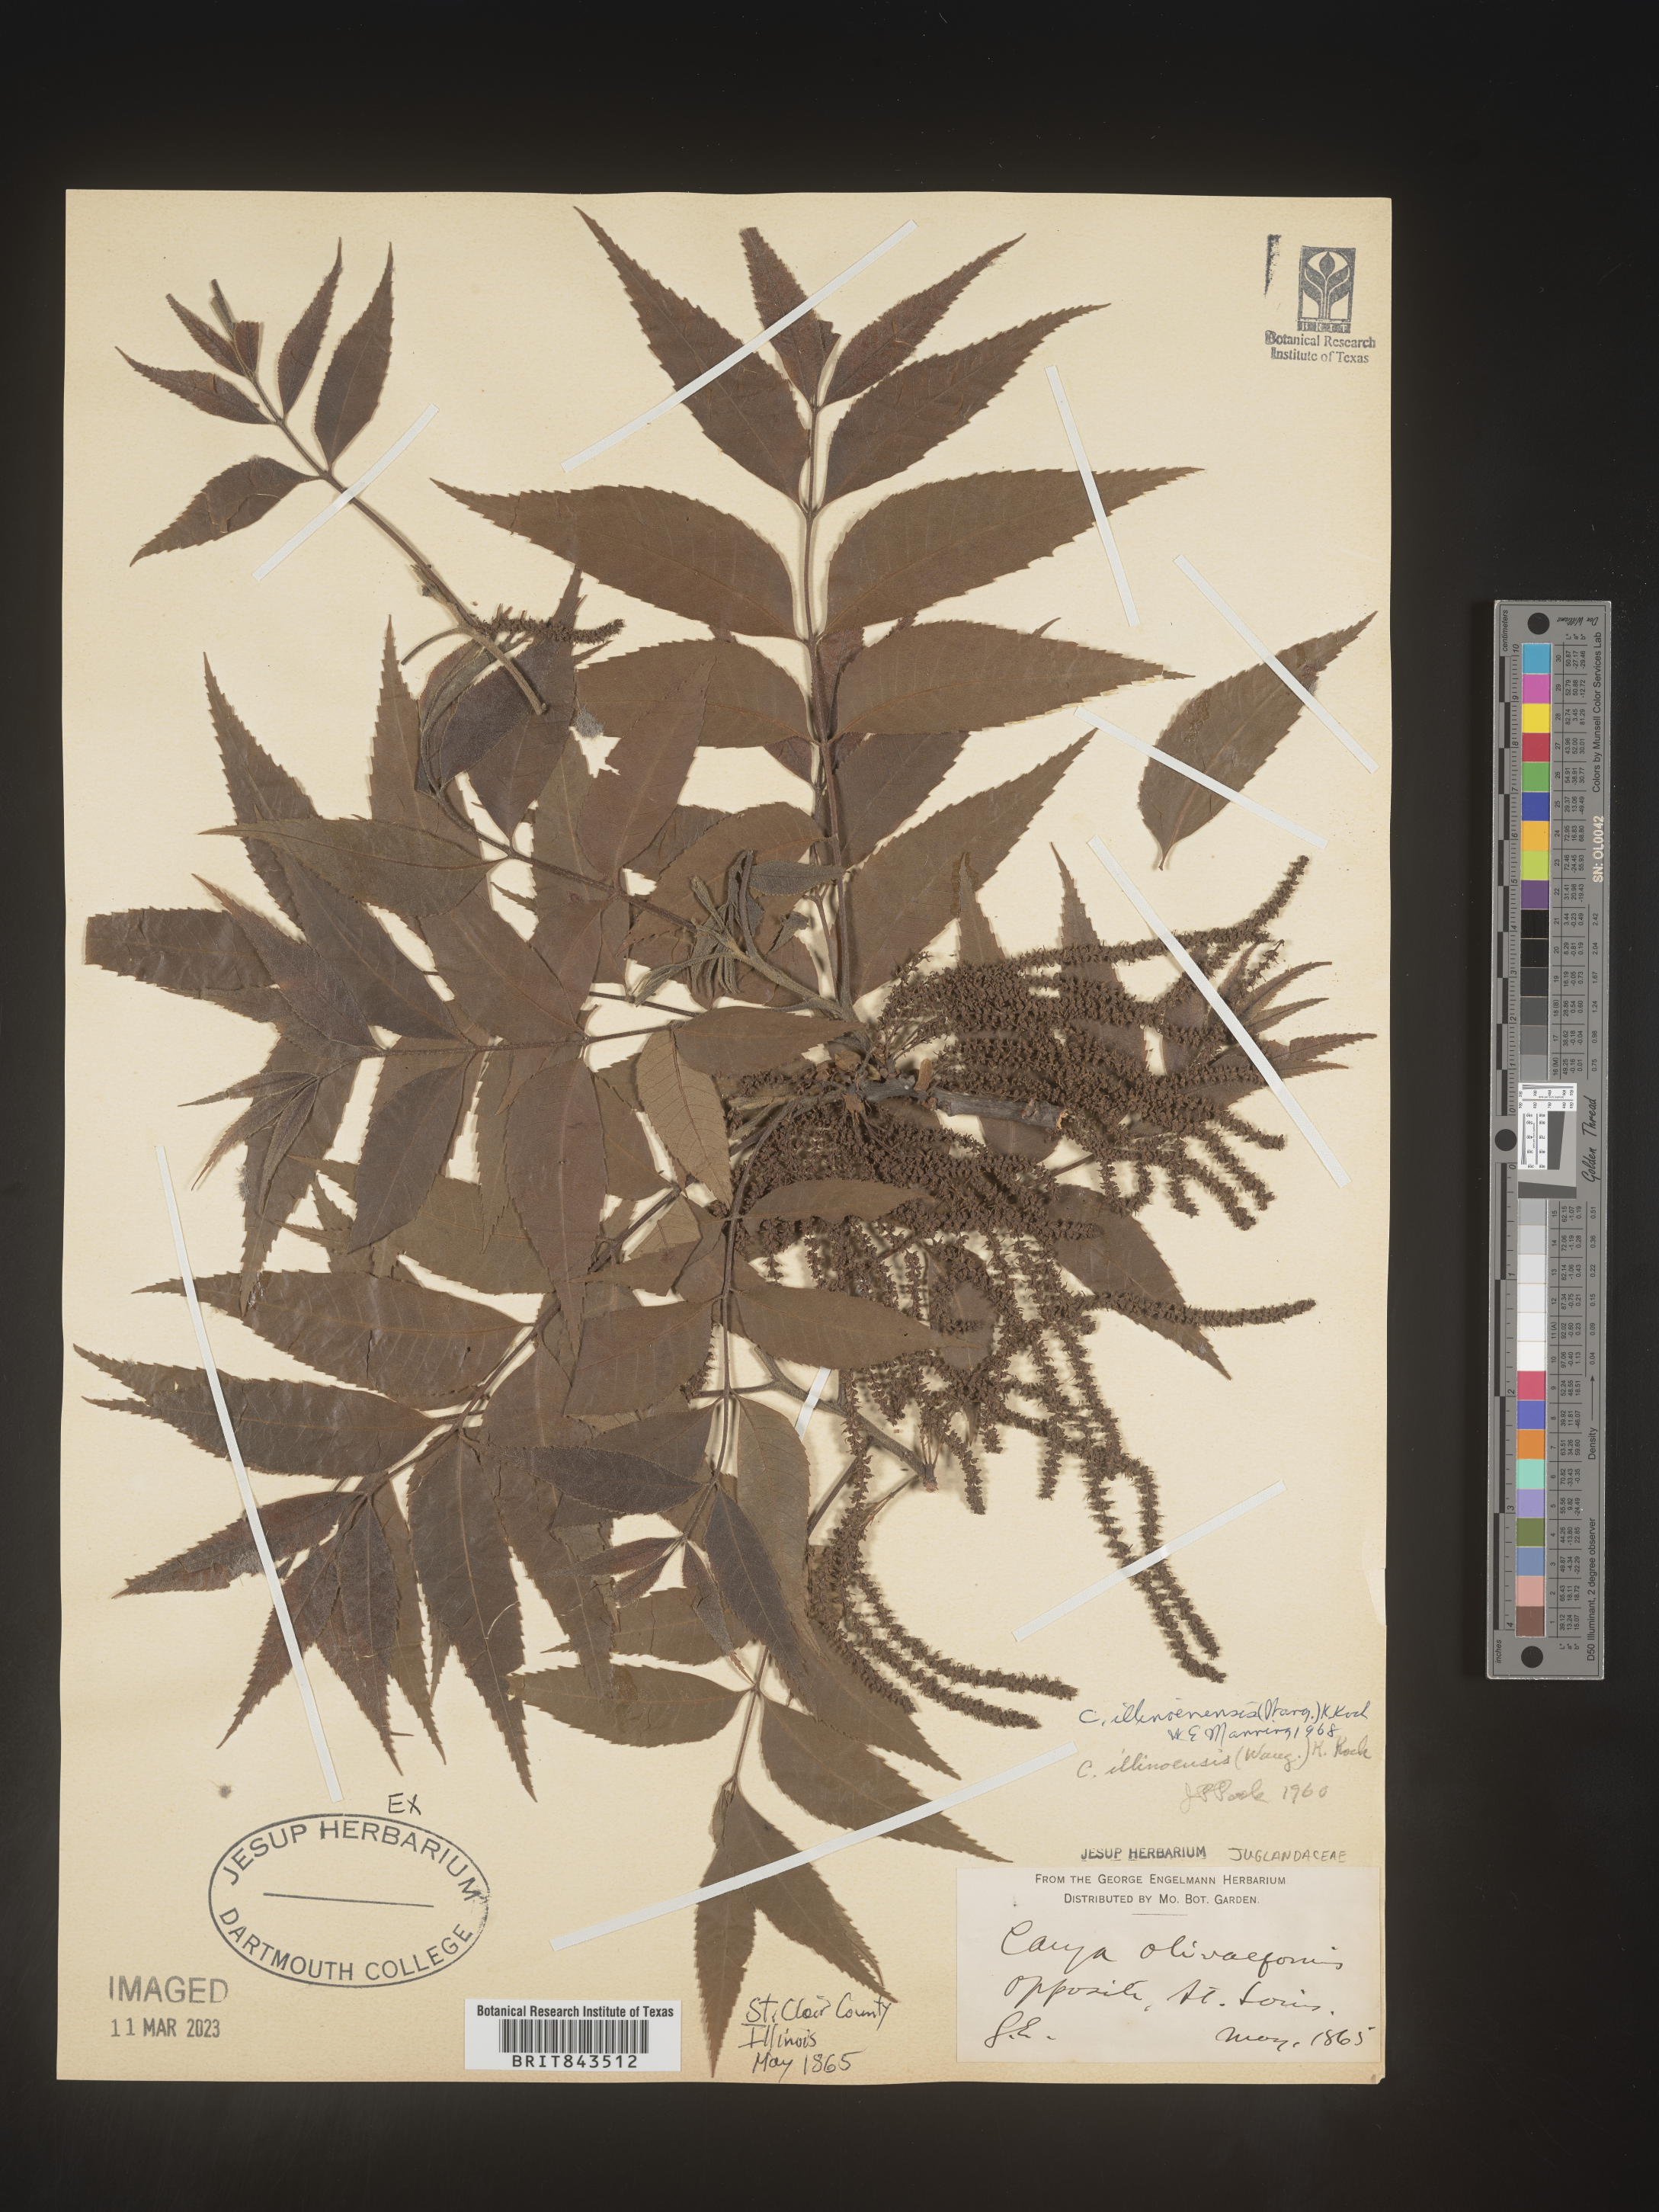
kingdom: Plantae
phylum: Tracheophyta
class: Magnoliopsida
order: Fagales
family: Juglandaceae
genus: Carya
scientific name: Carya illinoinensis
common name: Pecan
